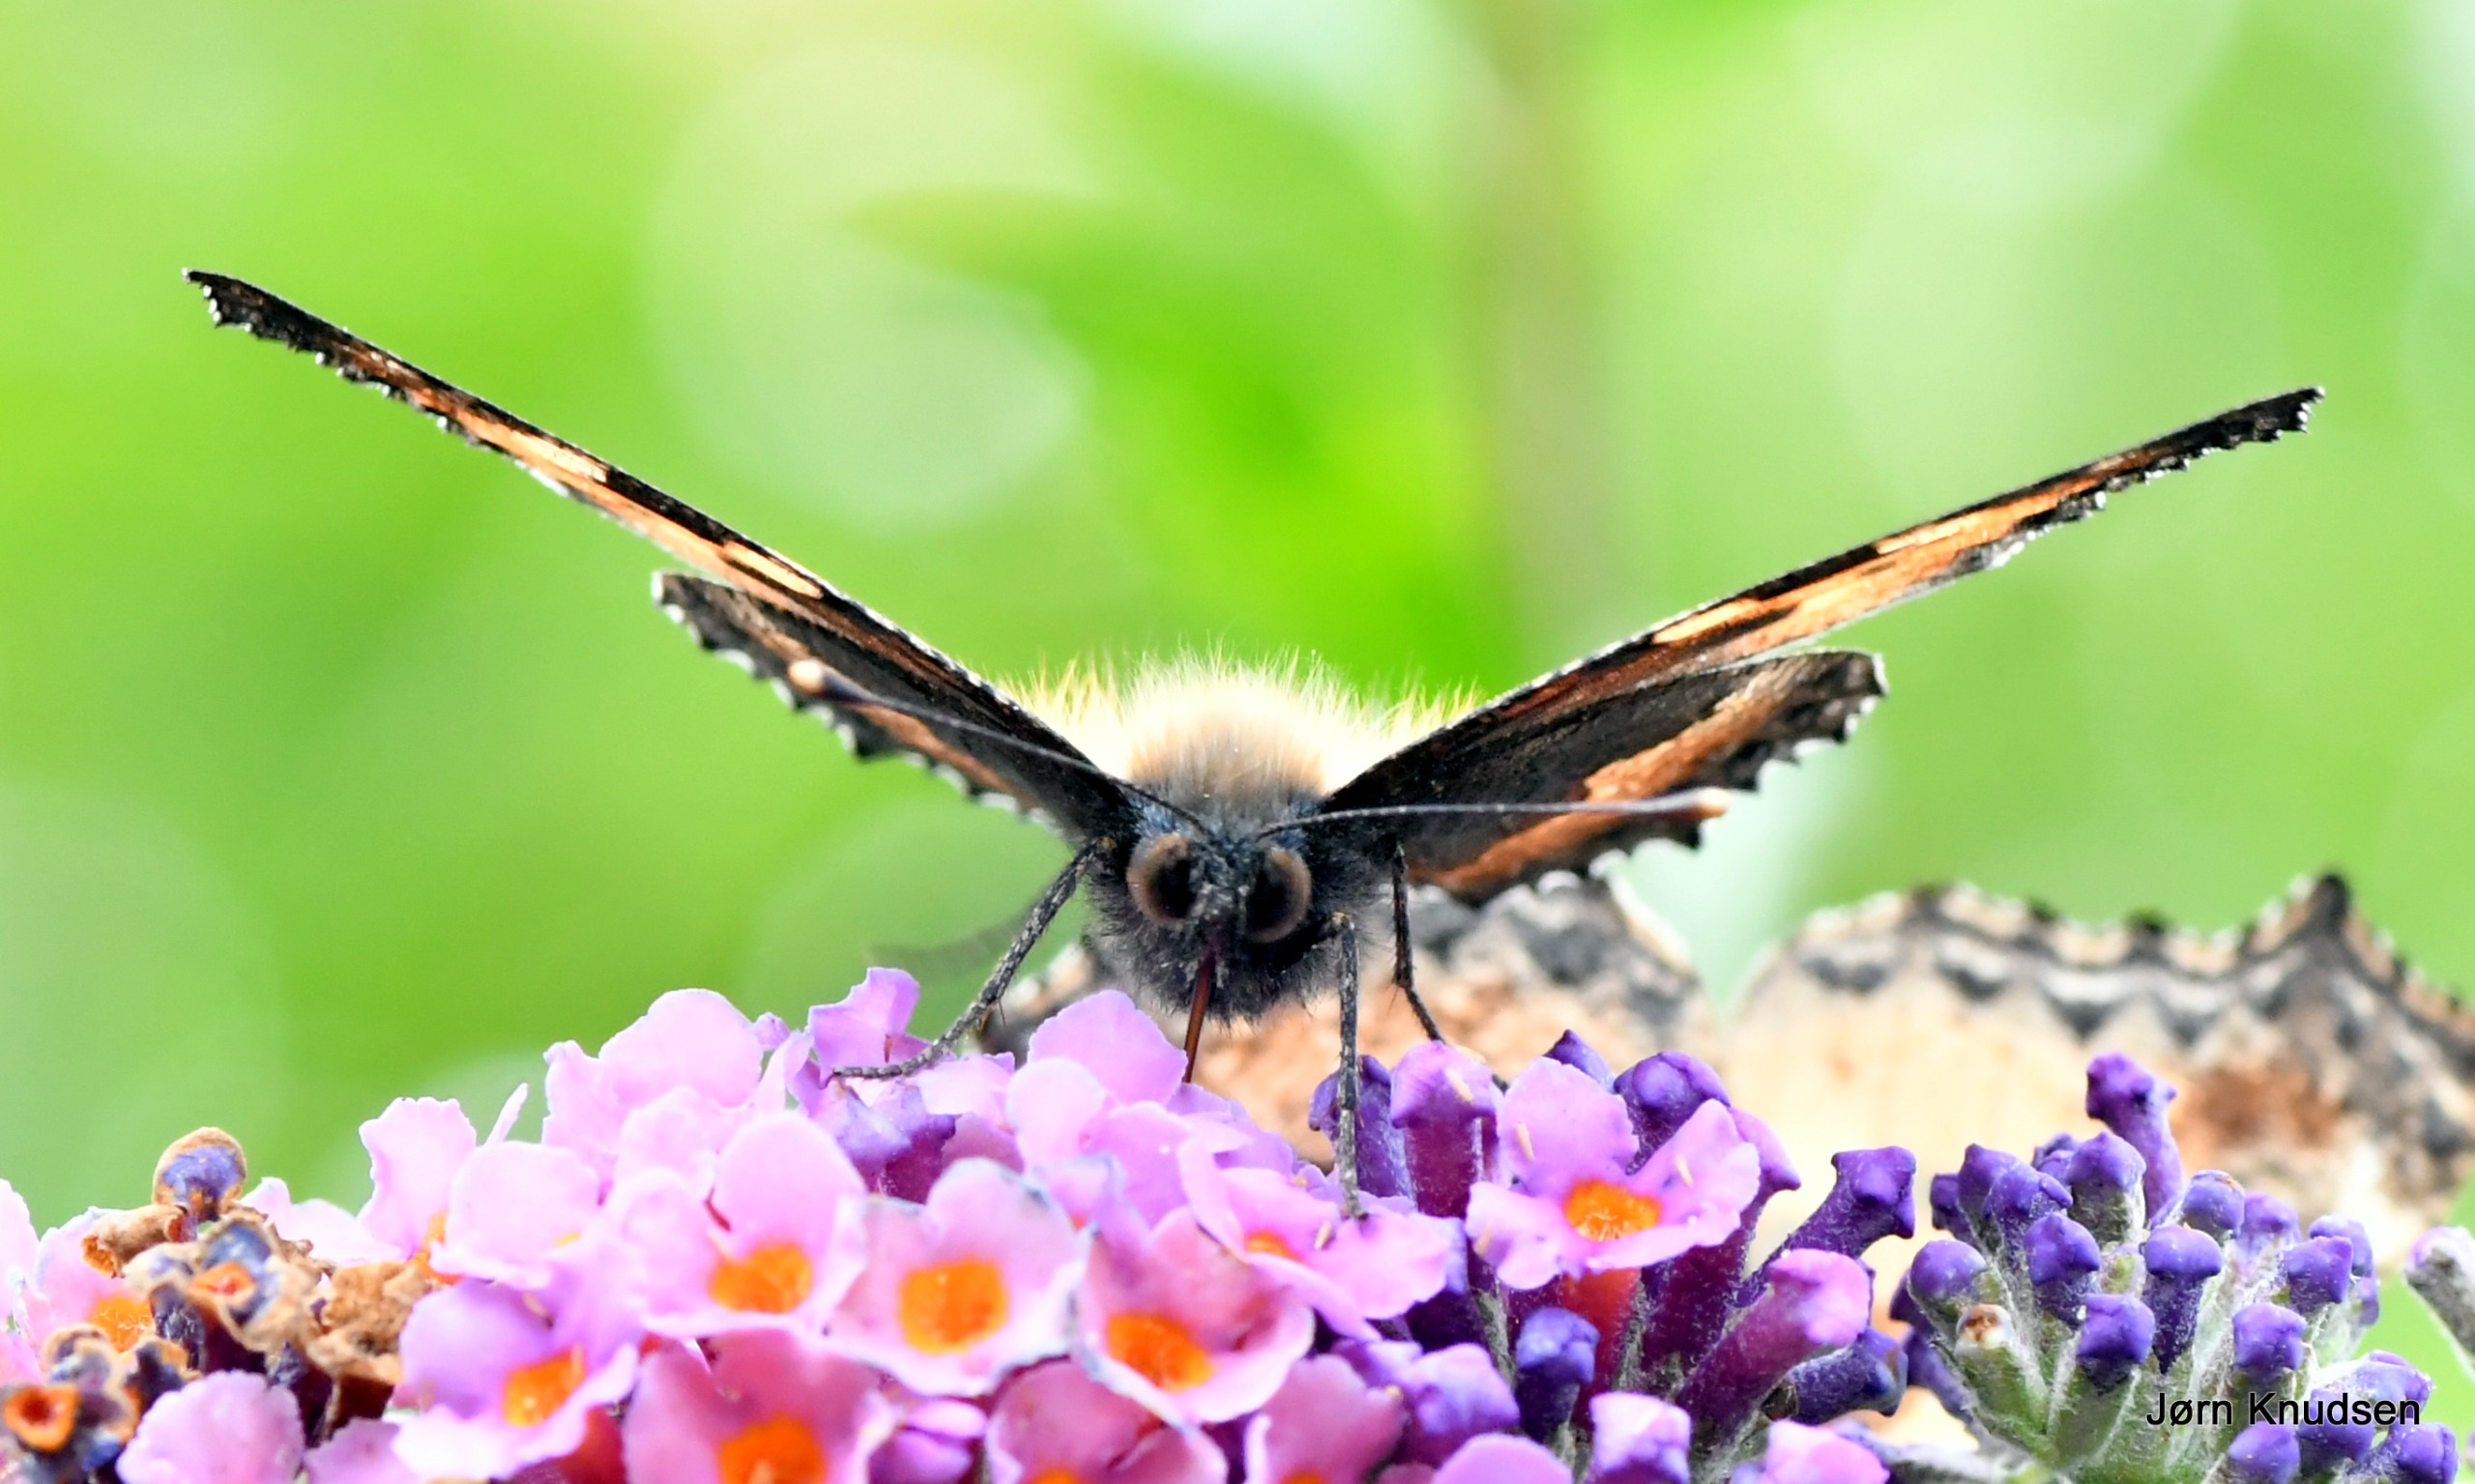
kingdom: Animalia
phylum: Arthropoda
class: Insecta
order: Lepidoptera
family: Nymphalidae
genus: Aglais
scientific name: Aglais urticae
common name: Nældens takvinge
